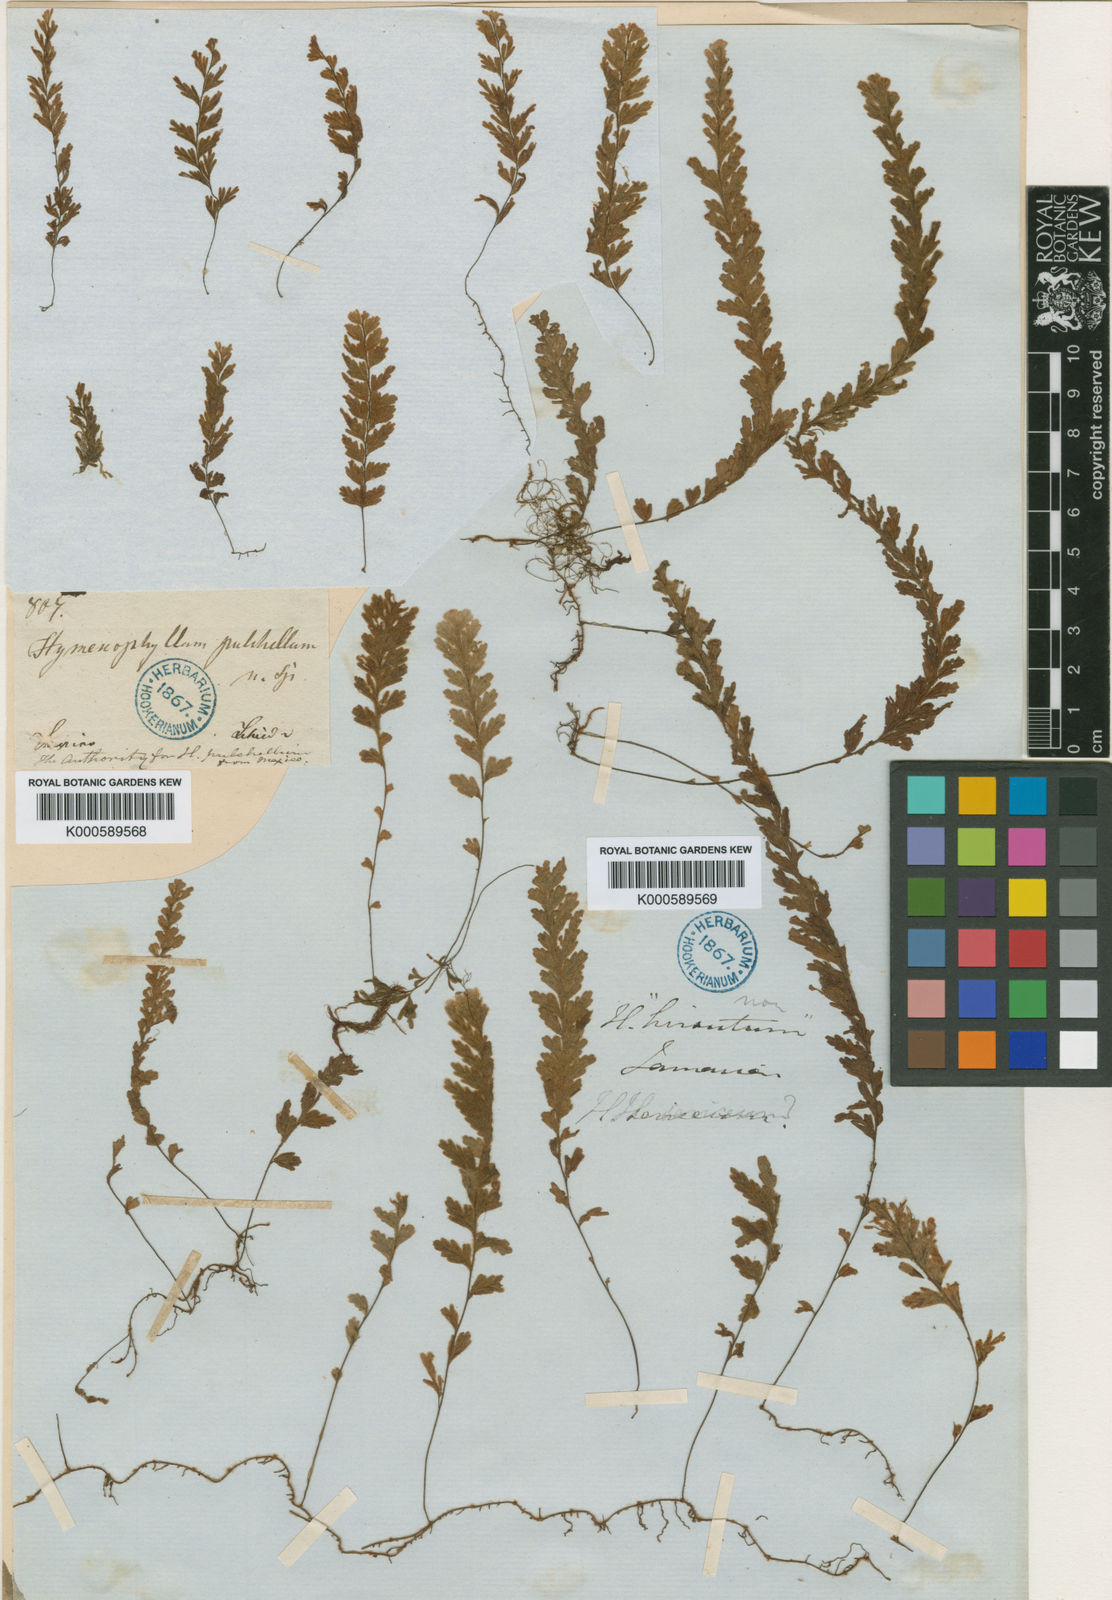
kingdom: Plantae
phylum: Tracheophyta
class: Polypodiopsida
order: Hymenophyllales
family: Hymenophyllaceae
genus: Hymenophyllum
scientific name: Hymenophyllum sericeum
